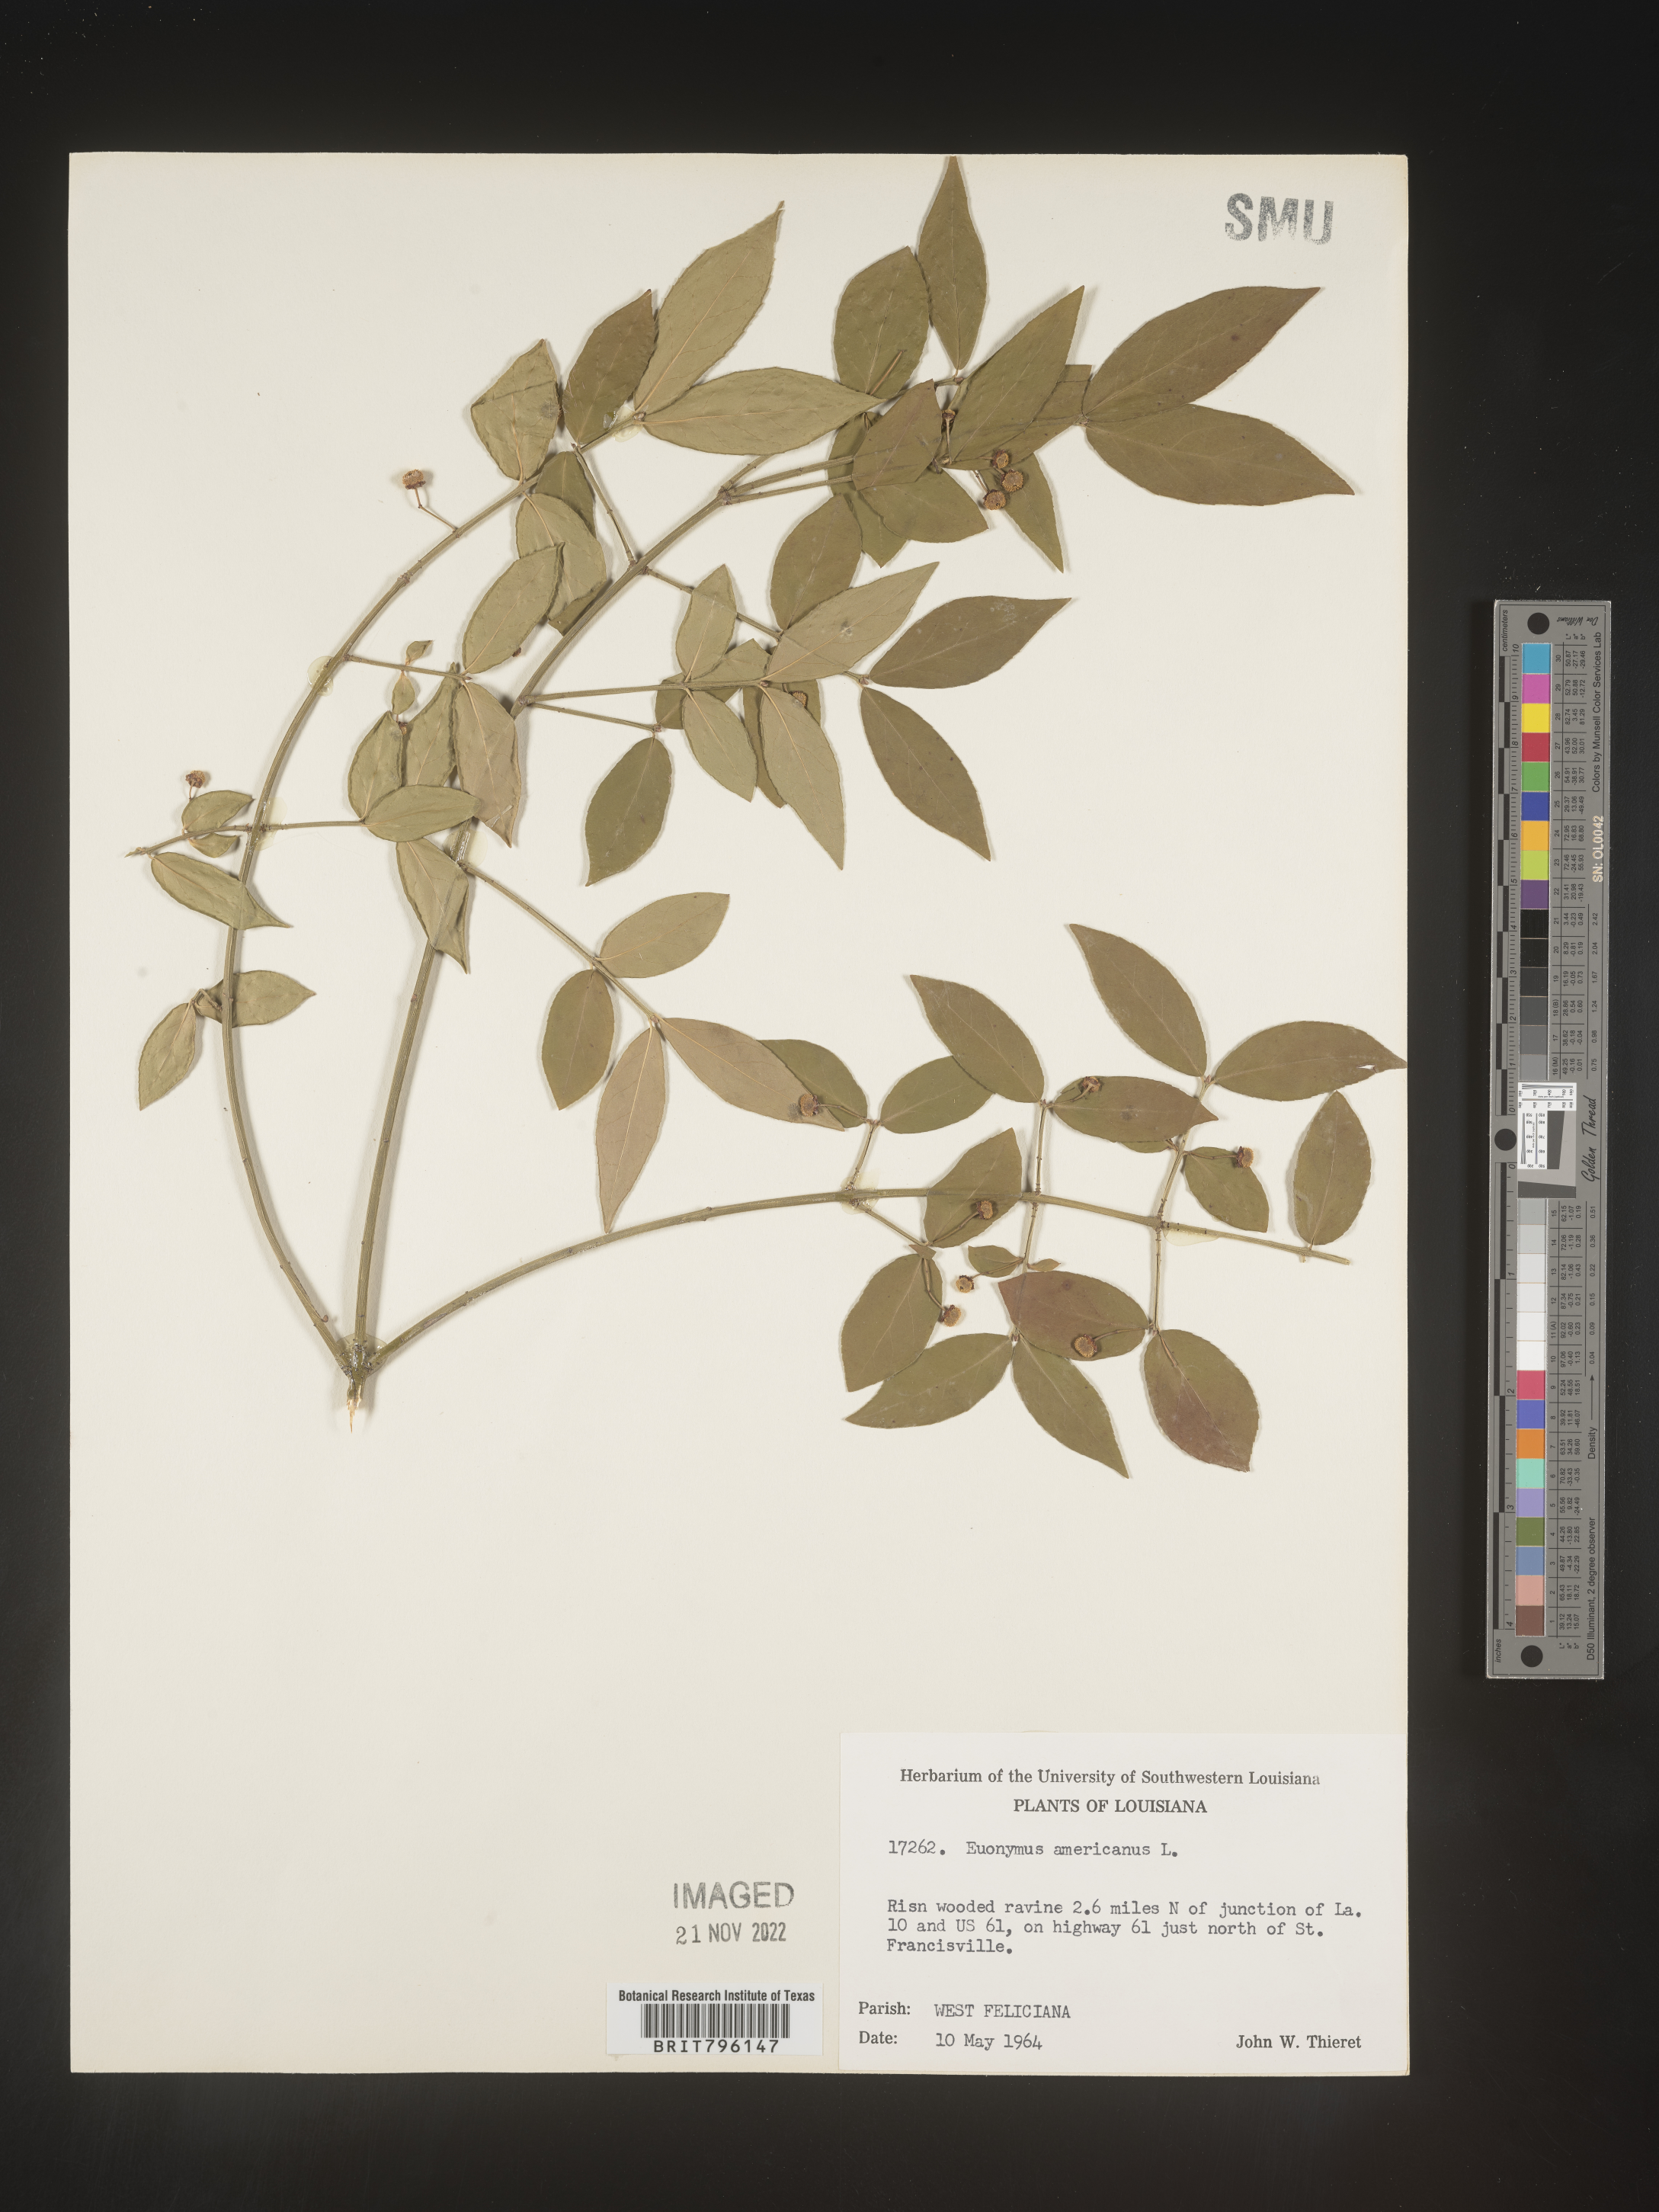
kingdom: Plantae
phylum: Tracheophyta
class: Magnoliopsida
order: Celastrales
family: Celastraceae
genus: Euonymus
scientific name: Euonymus americanus
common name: Bursting-heart
